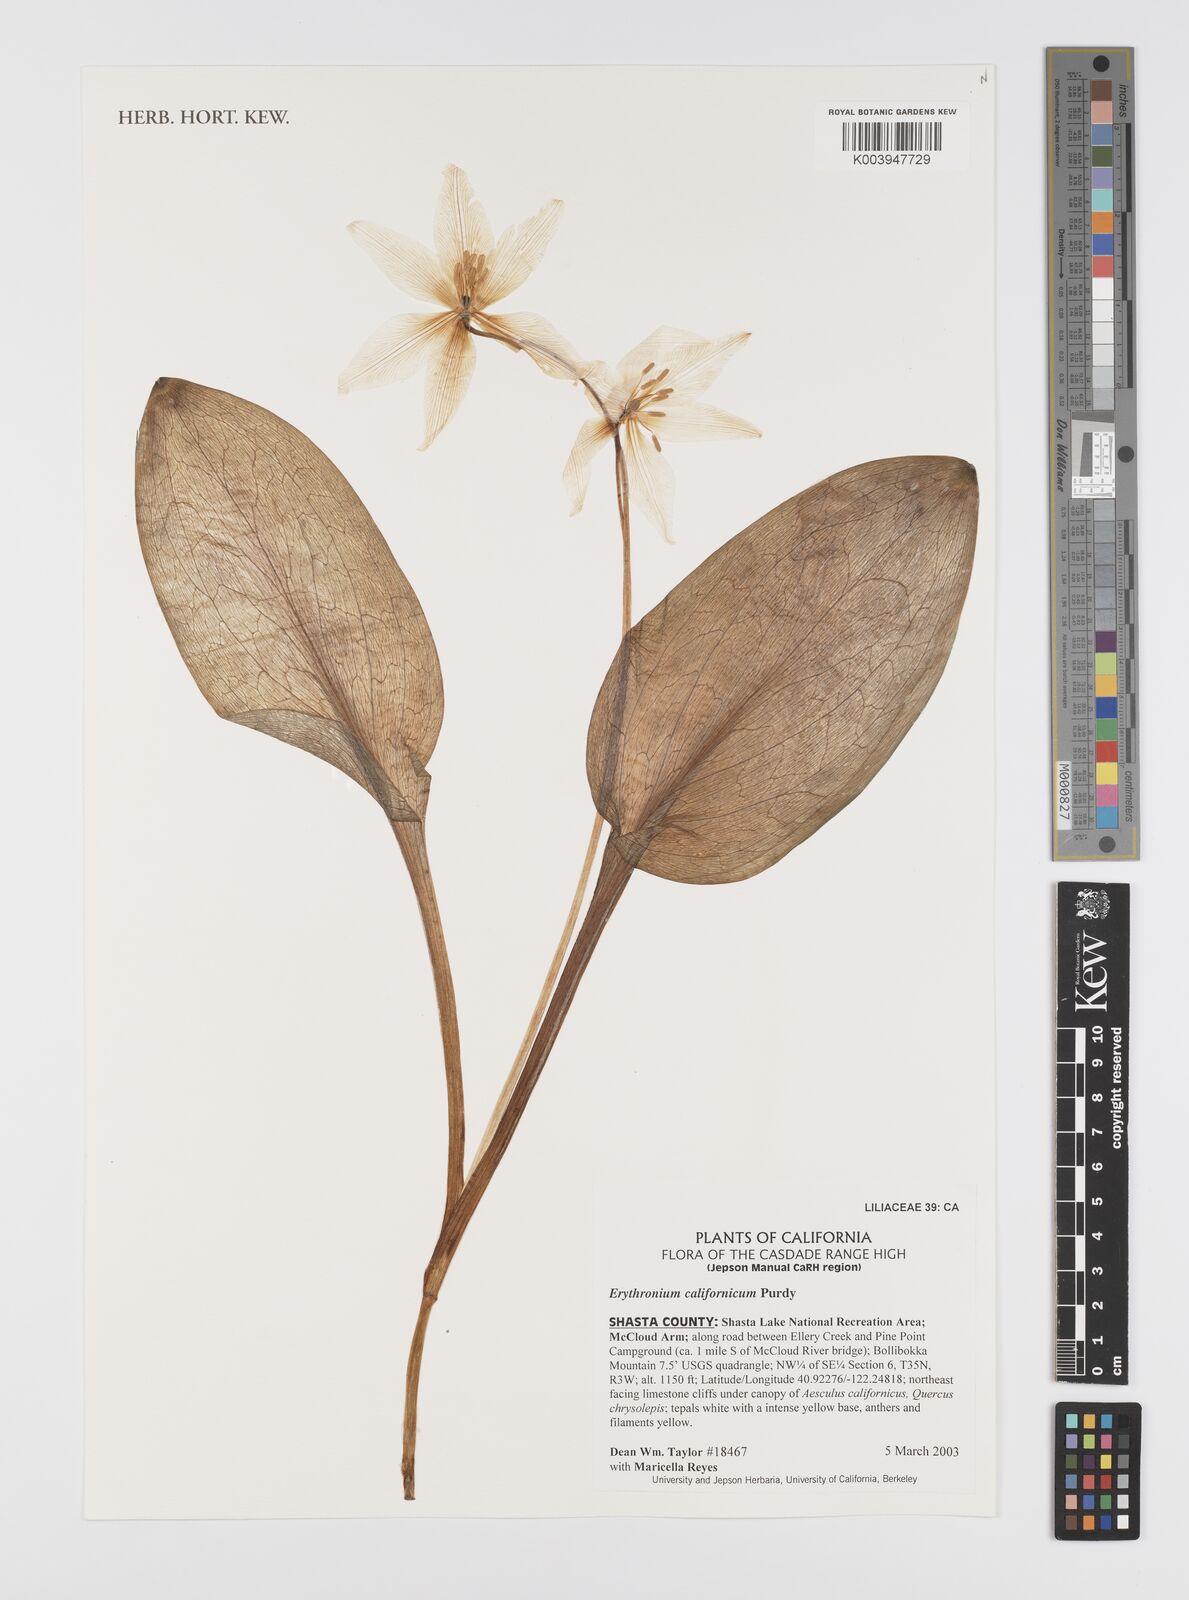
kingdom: Plantae
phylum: Tracheophyta
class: Liliopsida
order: Liliales
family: Liliaceae
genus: Erythronium
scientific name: Erythronium californicum
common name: Fawn-lily
